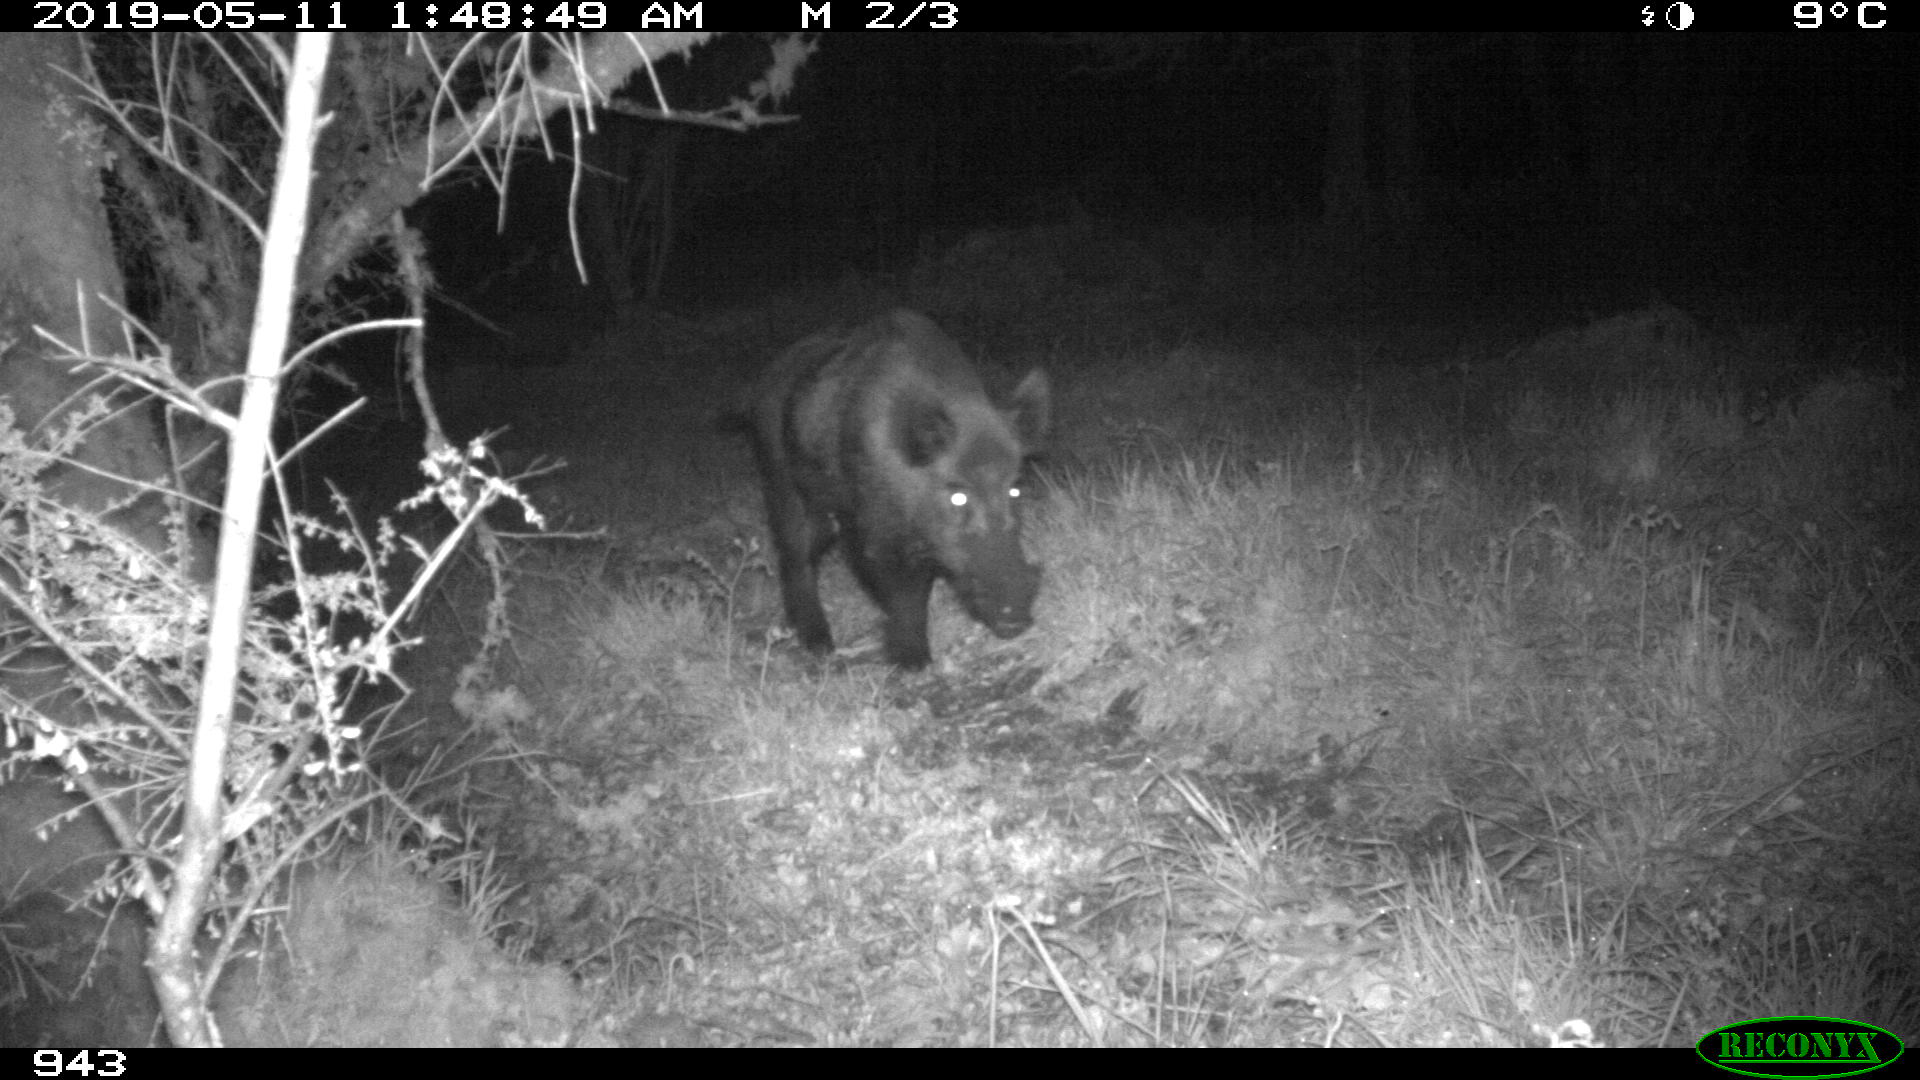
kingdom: Animalia
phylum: Chordata
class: Mammalia
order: Artiodactyla
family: Suidae
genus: Sus
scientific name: Sus scrofa
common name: Wild boar
